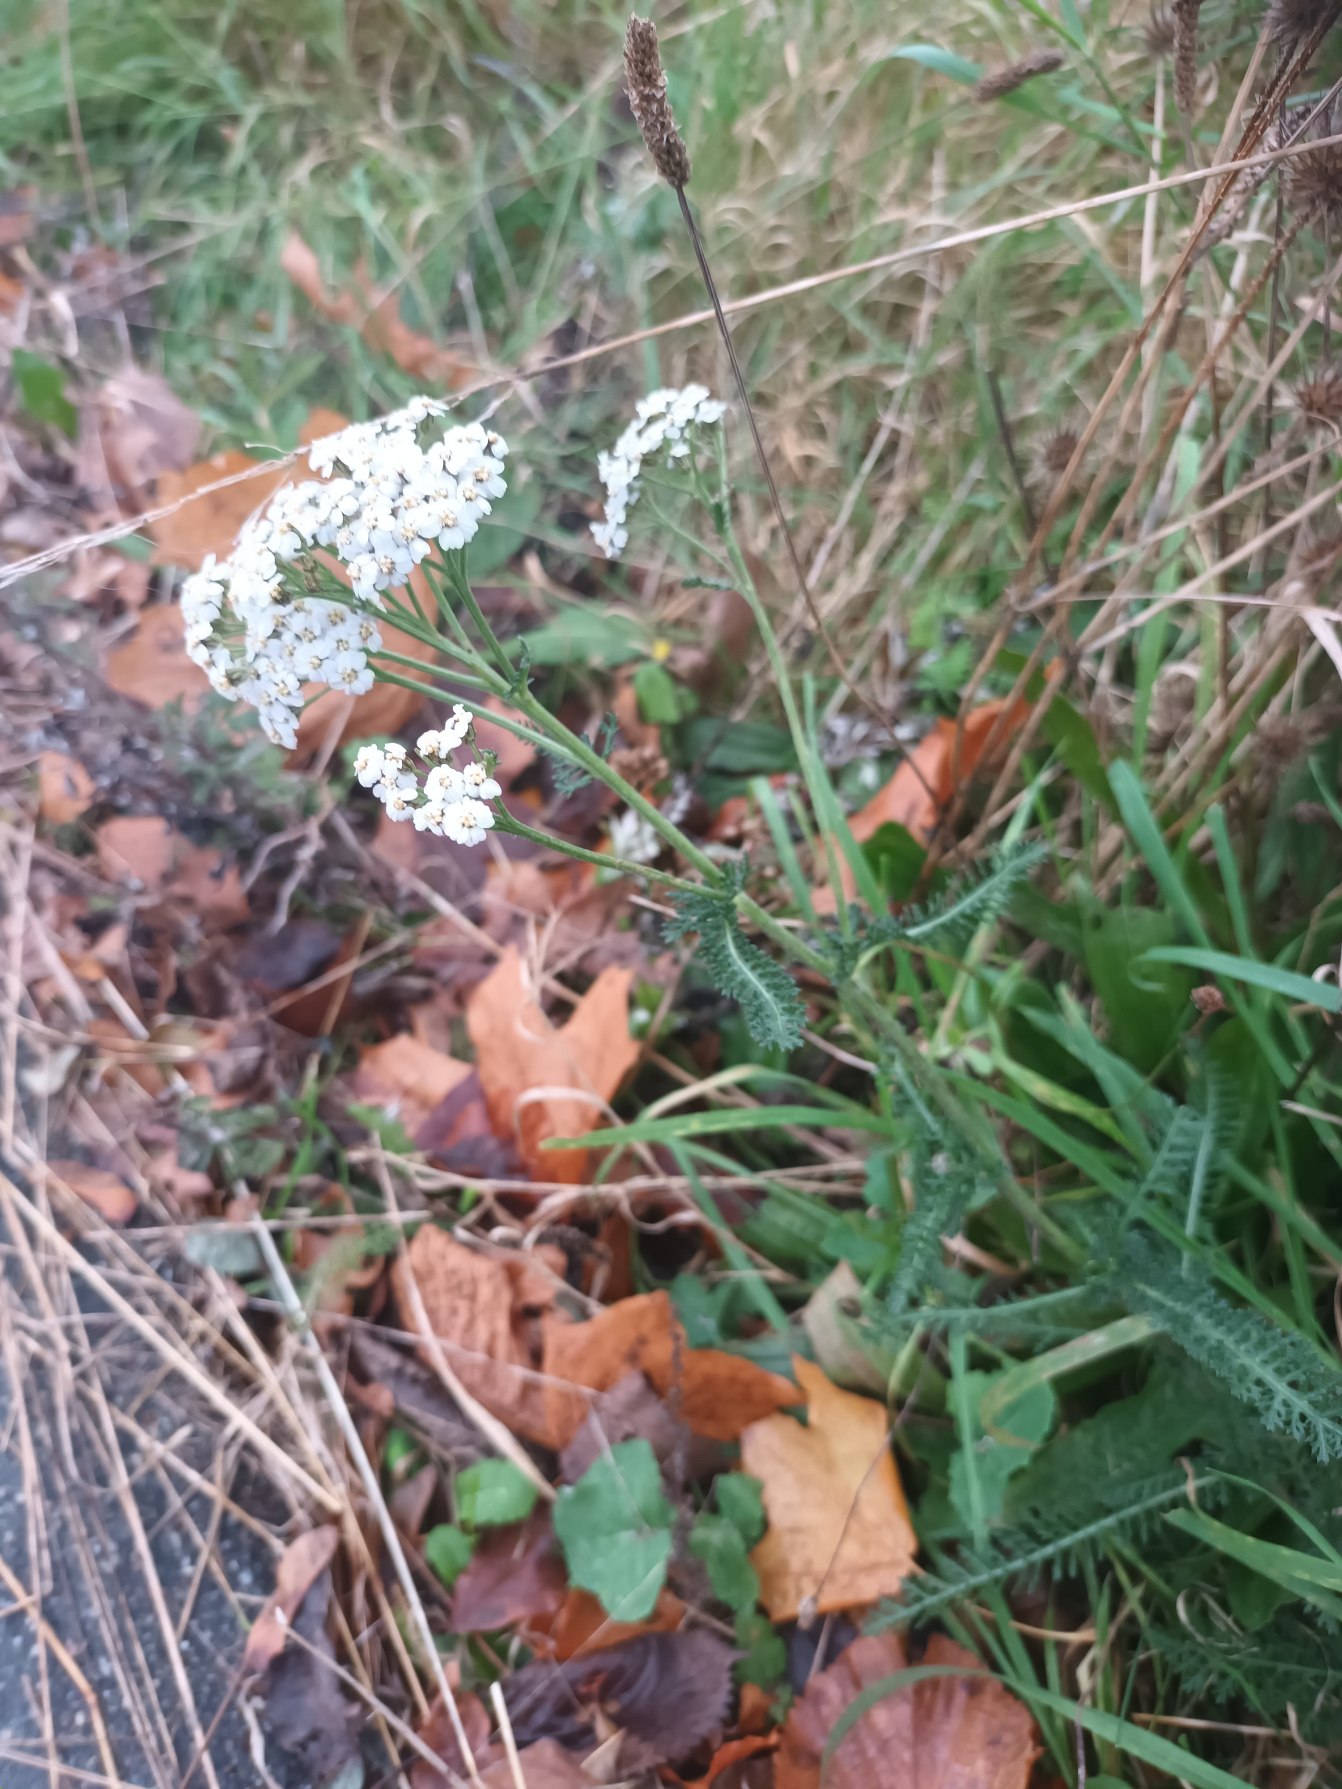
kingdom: Plantae
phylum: Tracheophyta
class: Magnoliopsida
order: Asterales
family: Asteraceae
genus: Achillea
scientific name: Achillea millefolium
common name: Almindelig røllike
